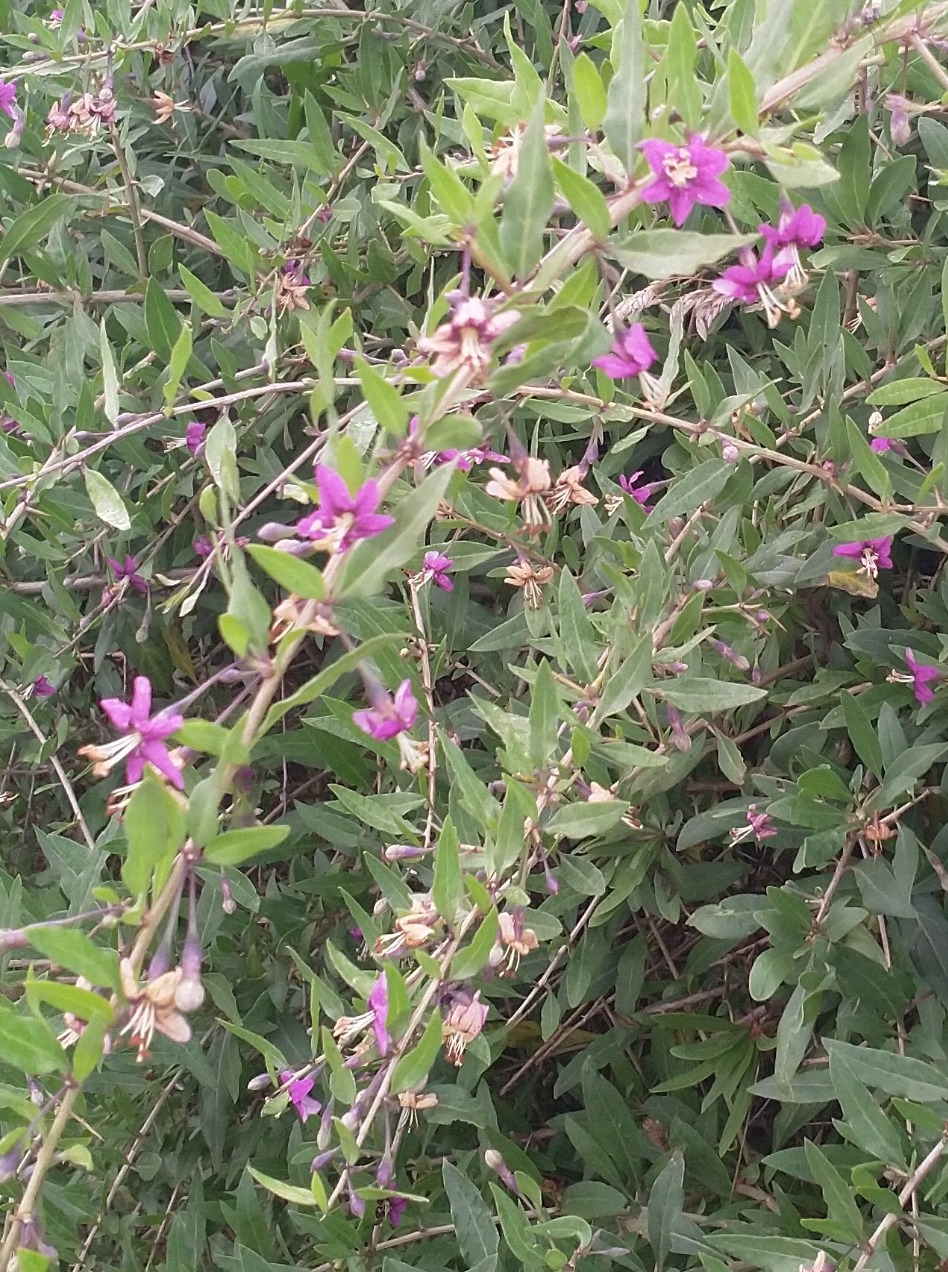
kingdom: Plantae
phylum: Tracheophyta
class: Magnoliopsida
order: Solanales
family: Solanaceae
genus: Lycium
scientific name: Lycium barbarum
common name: Bukketorn
